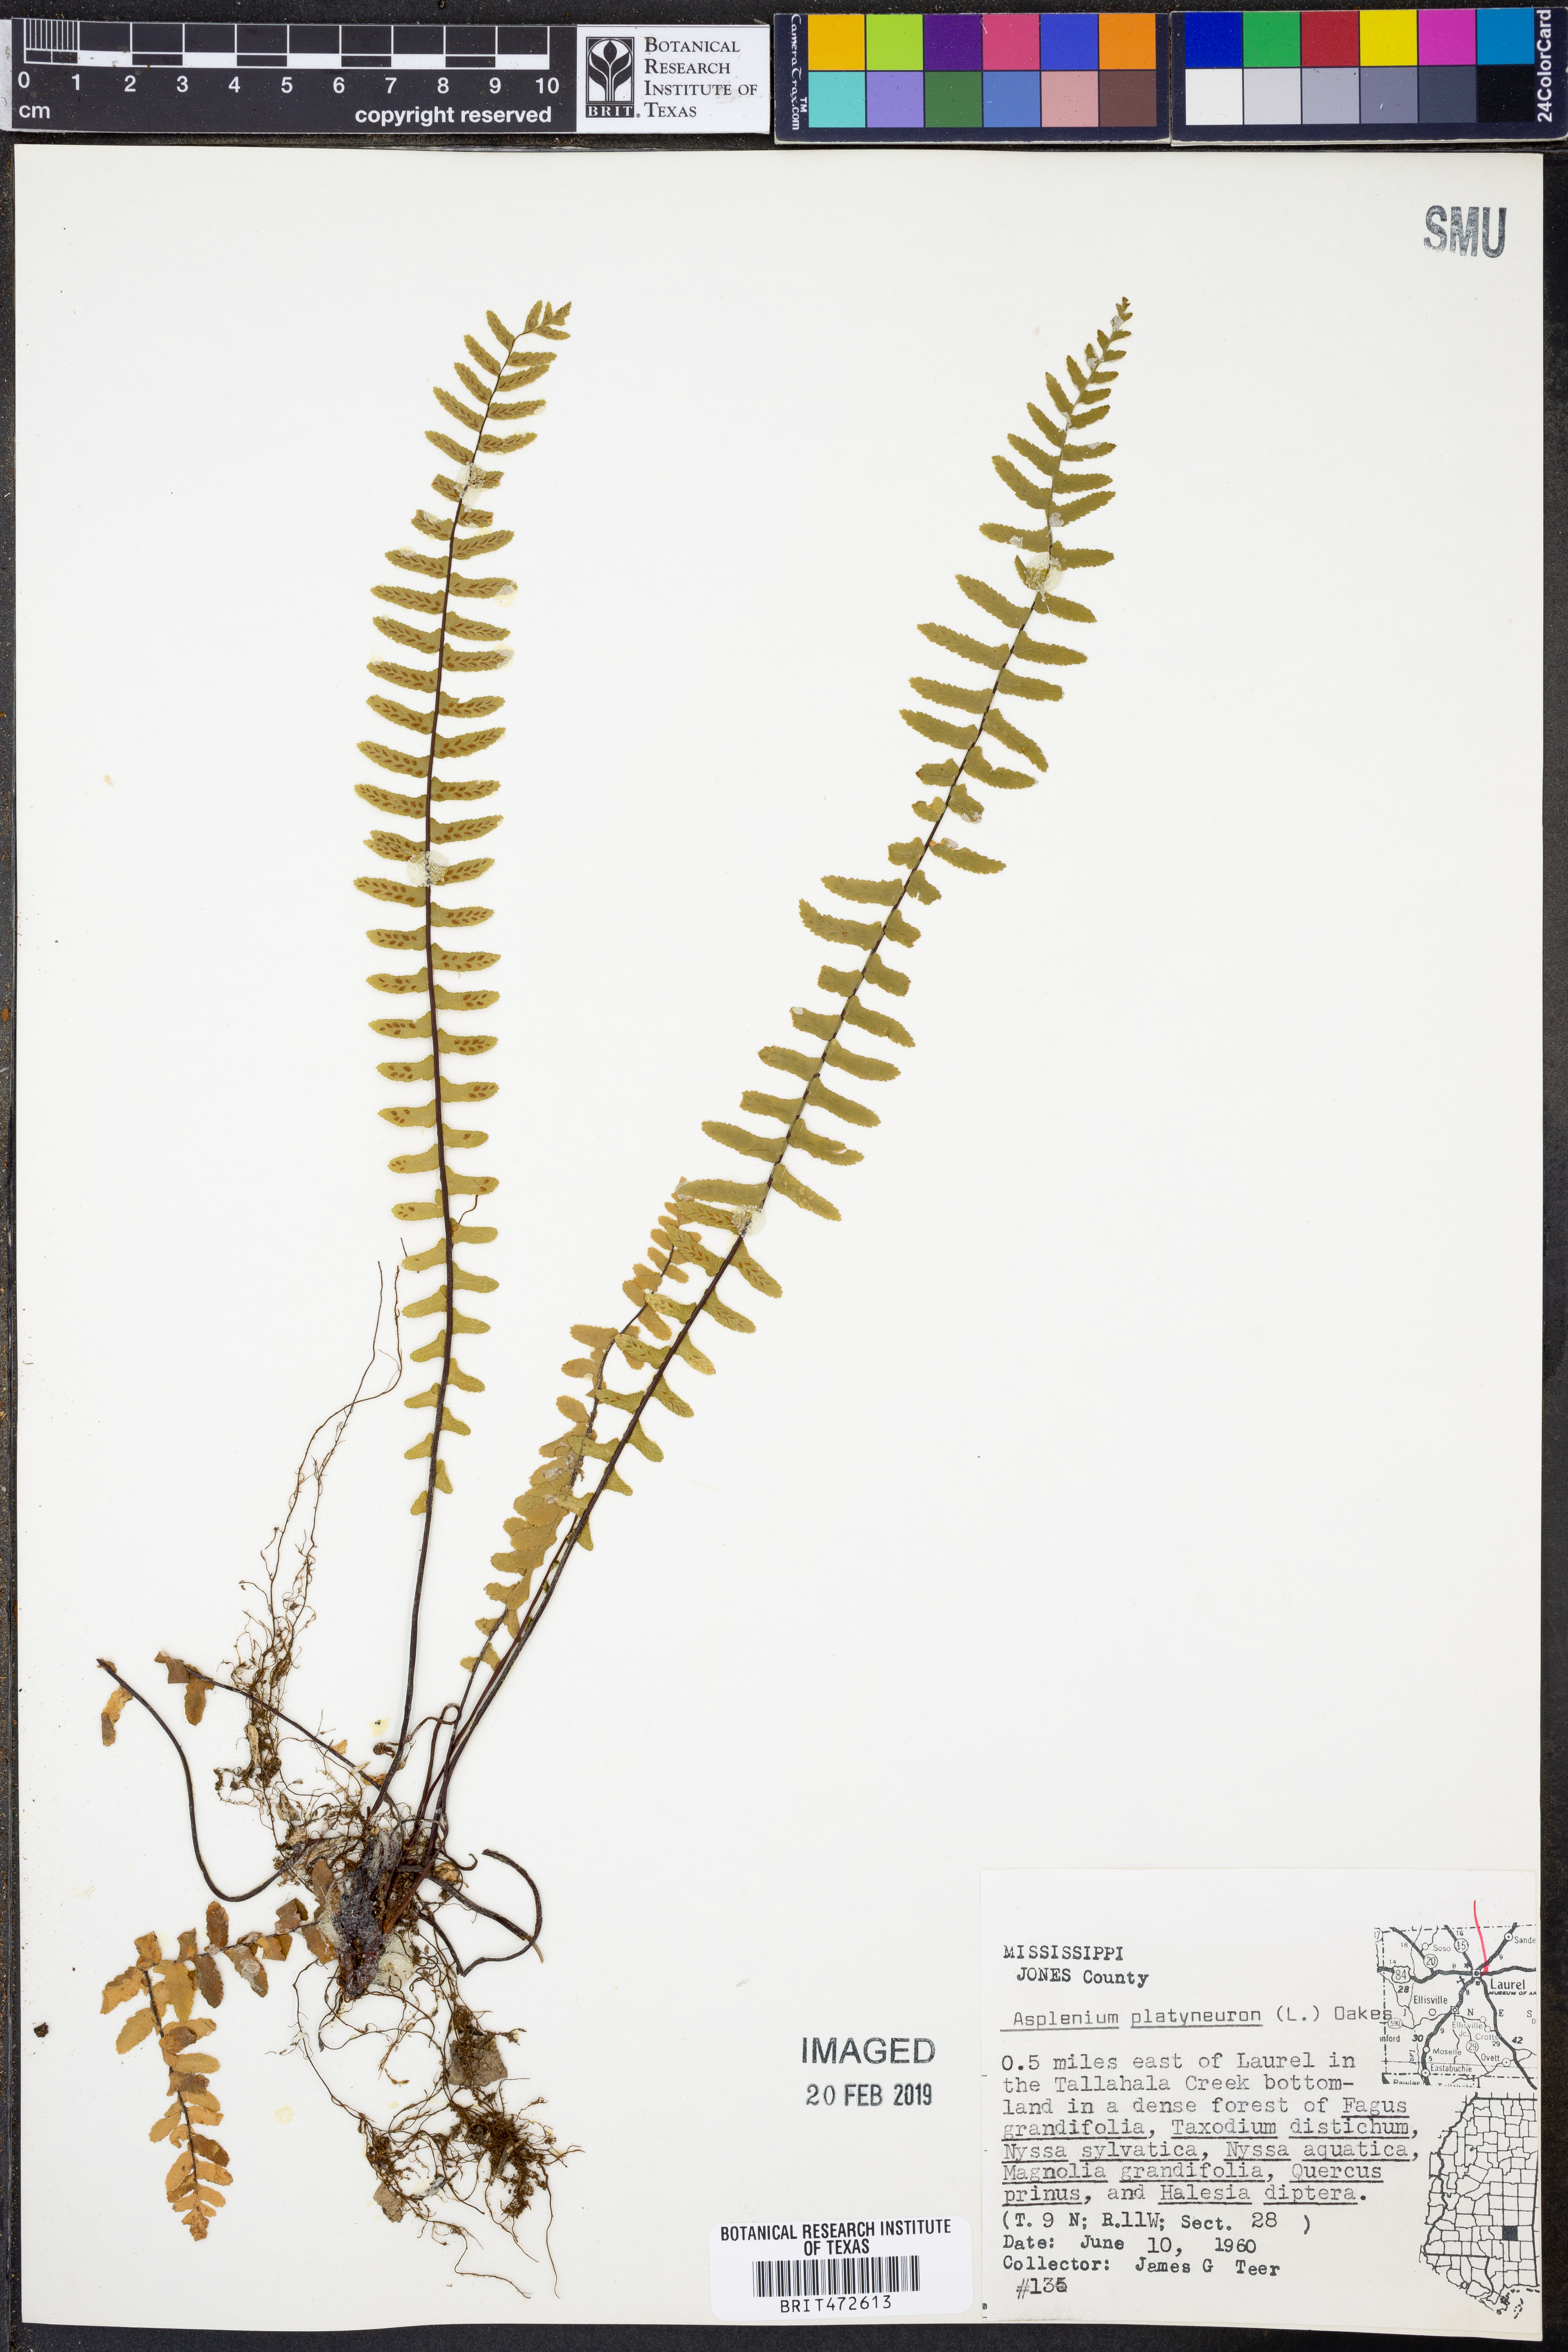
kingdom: Plantae
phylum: Tracheophyta
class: Polypodiopsida
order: Polypodiales
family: Aspleniaceae
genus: Asplenium
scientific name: Asplenium platyneuron
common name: Ebony spleenwort
